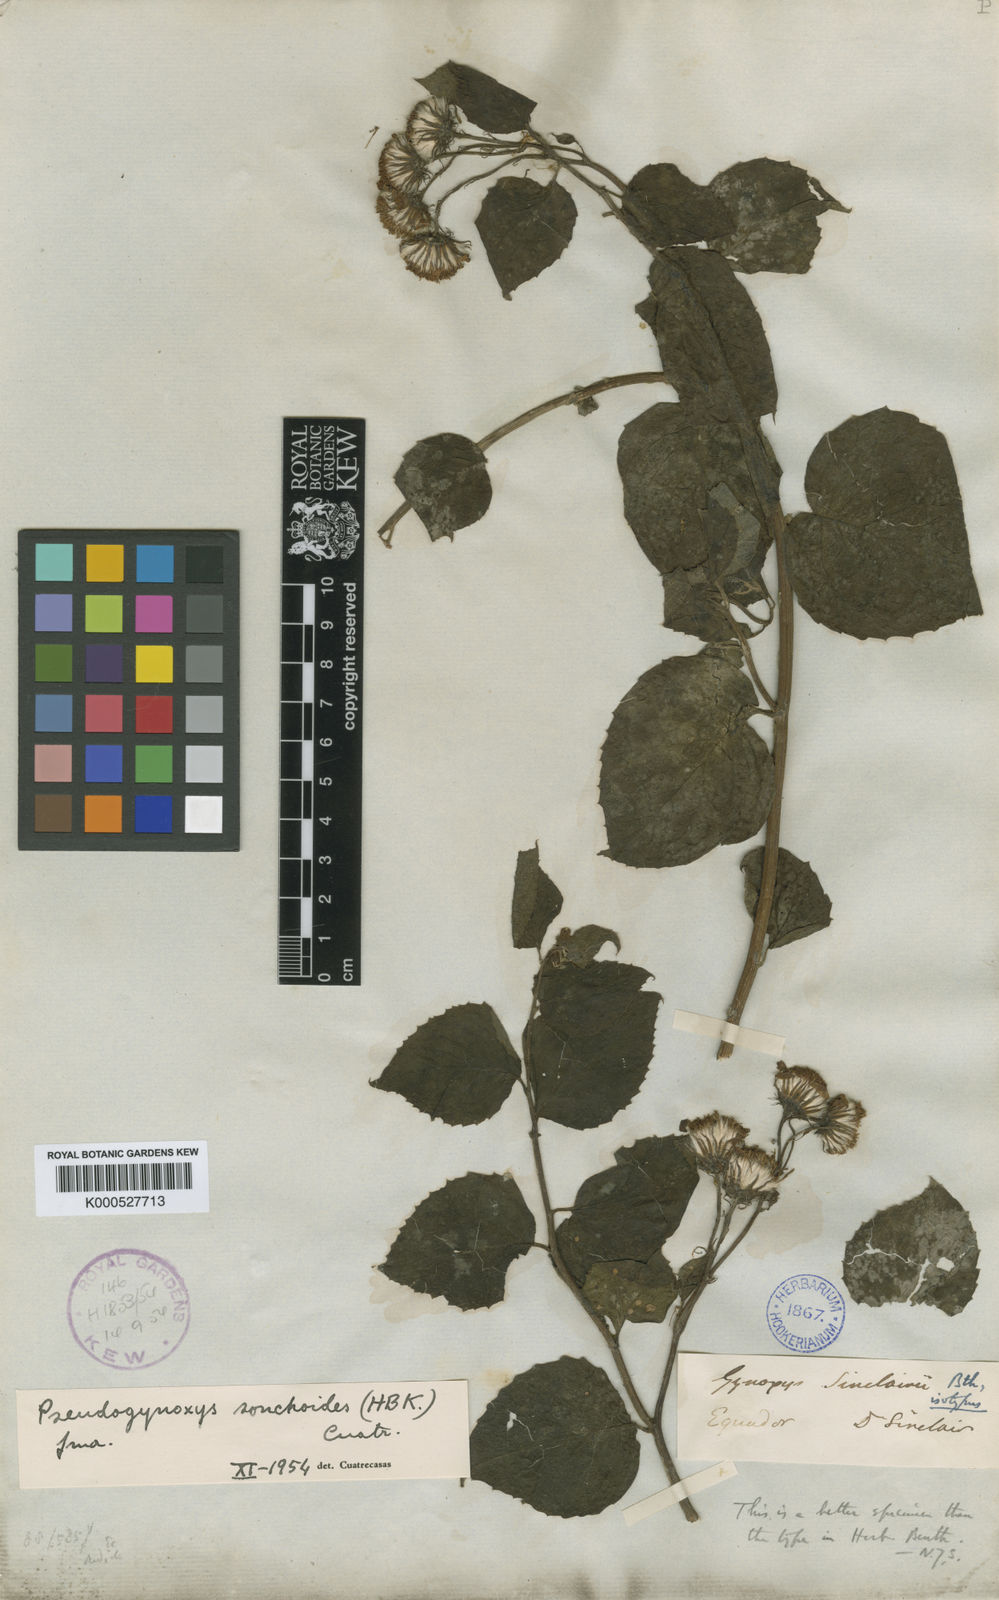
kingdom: Plantae
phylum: Tracheophyta
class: Magnoliopsida
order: Asterales
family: Asteraceae
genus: Pseudogynoxys
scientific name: Pseudogynoxys sonchoides
